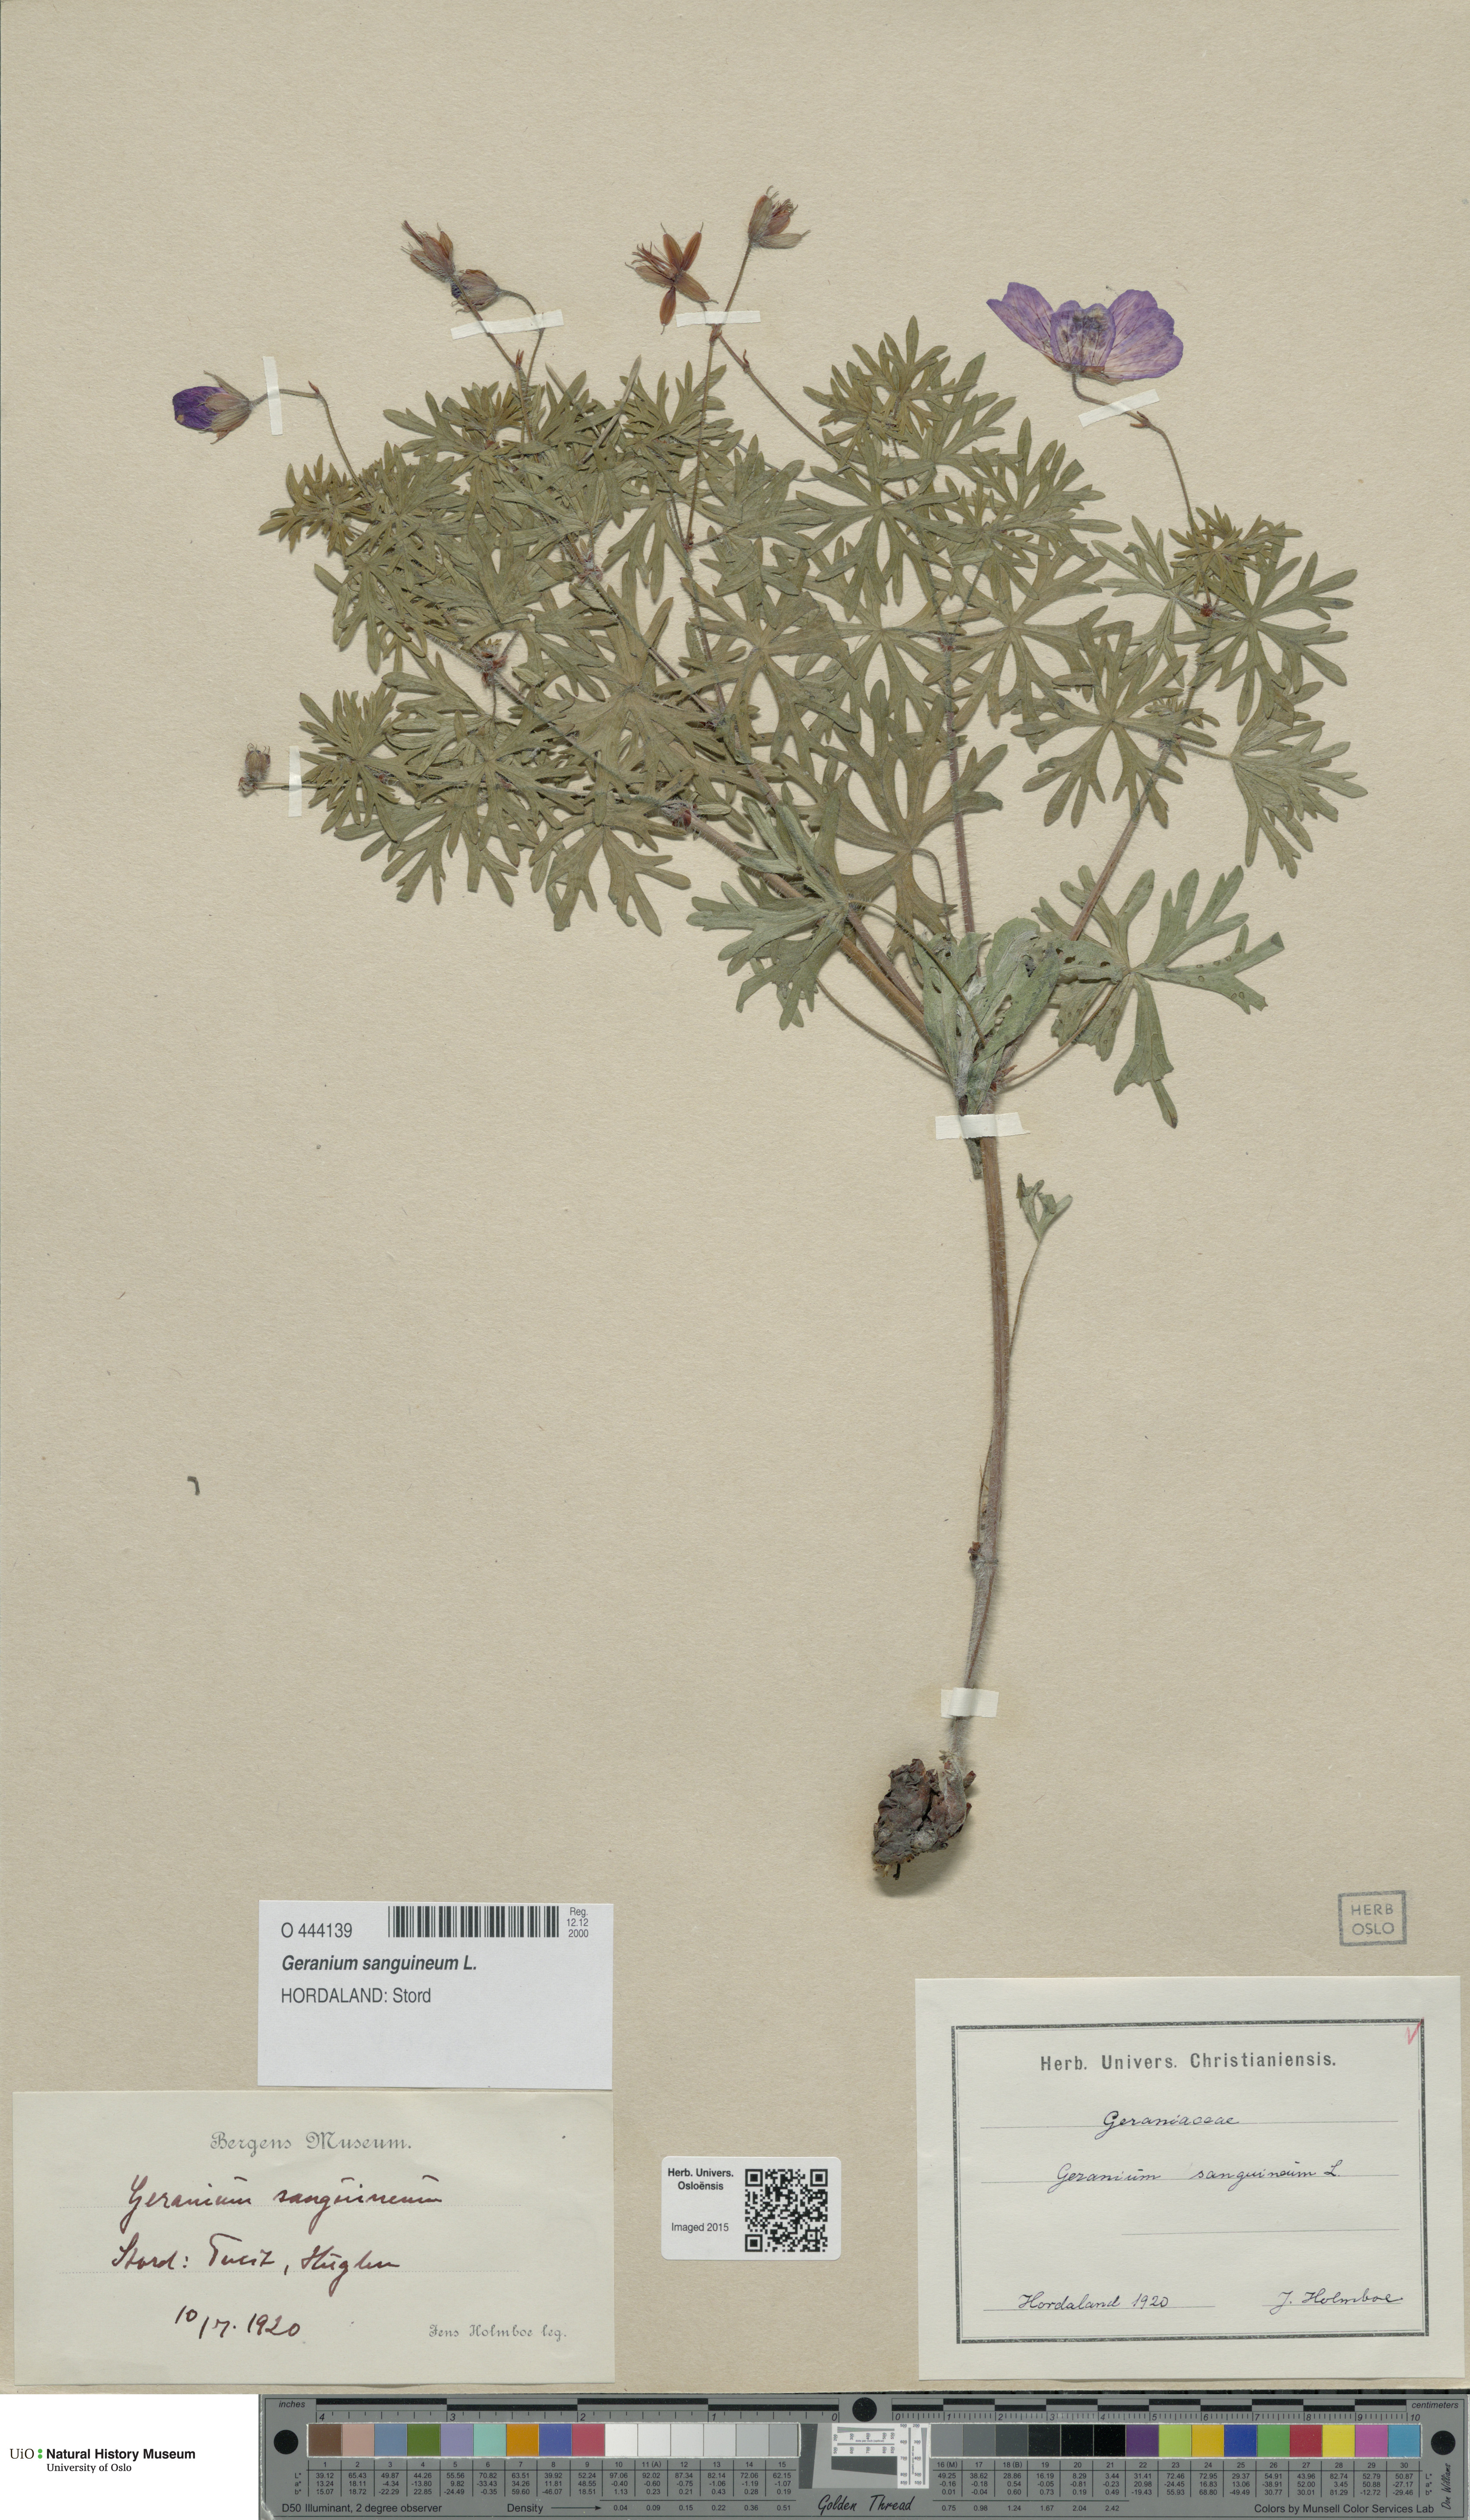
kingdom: Plantae
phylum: Tracheophyta
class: Magnoliopsida
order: Geraniales
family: Geraniaceae
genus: Geranium
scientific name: Geranium sanguineum
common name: Bloody crane's-bill
